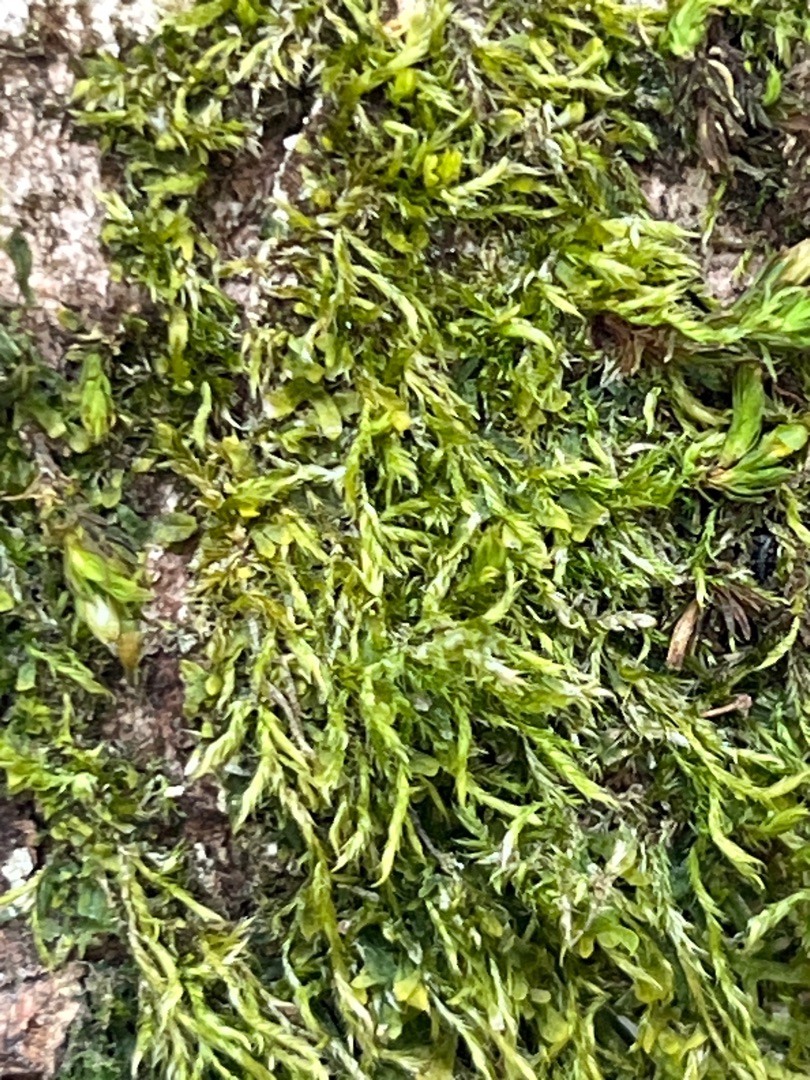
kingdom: Plantae
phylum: Bryophyta
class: Bryopsida
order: Hypnales
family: Hypnaceae
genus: Hypnum
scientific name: Hypnum
